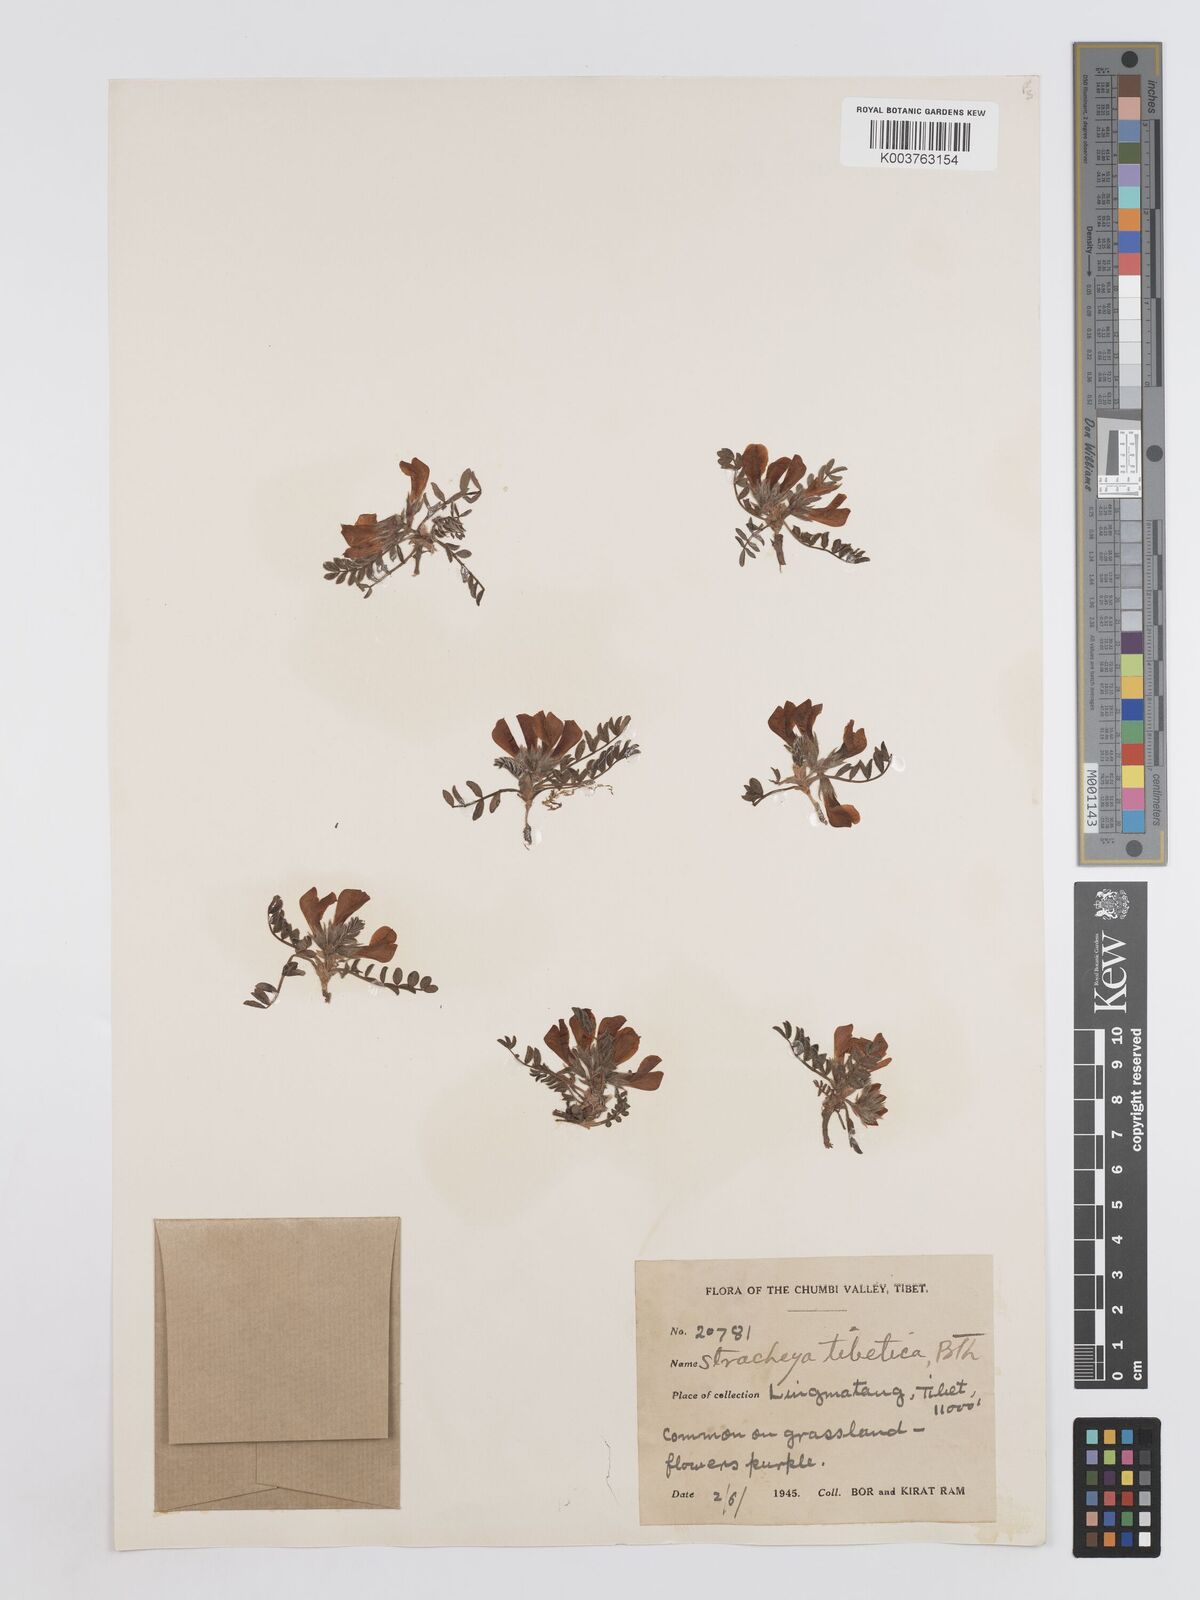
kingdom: Plantae
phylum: Tracheophyta
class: Magnoliopsida
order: Fabales
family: Fabaceae
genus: Hedysarum
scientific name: Hedysarum tibeticum
